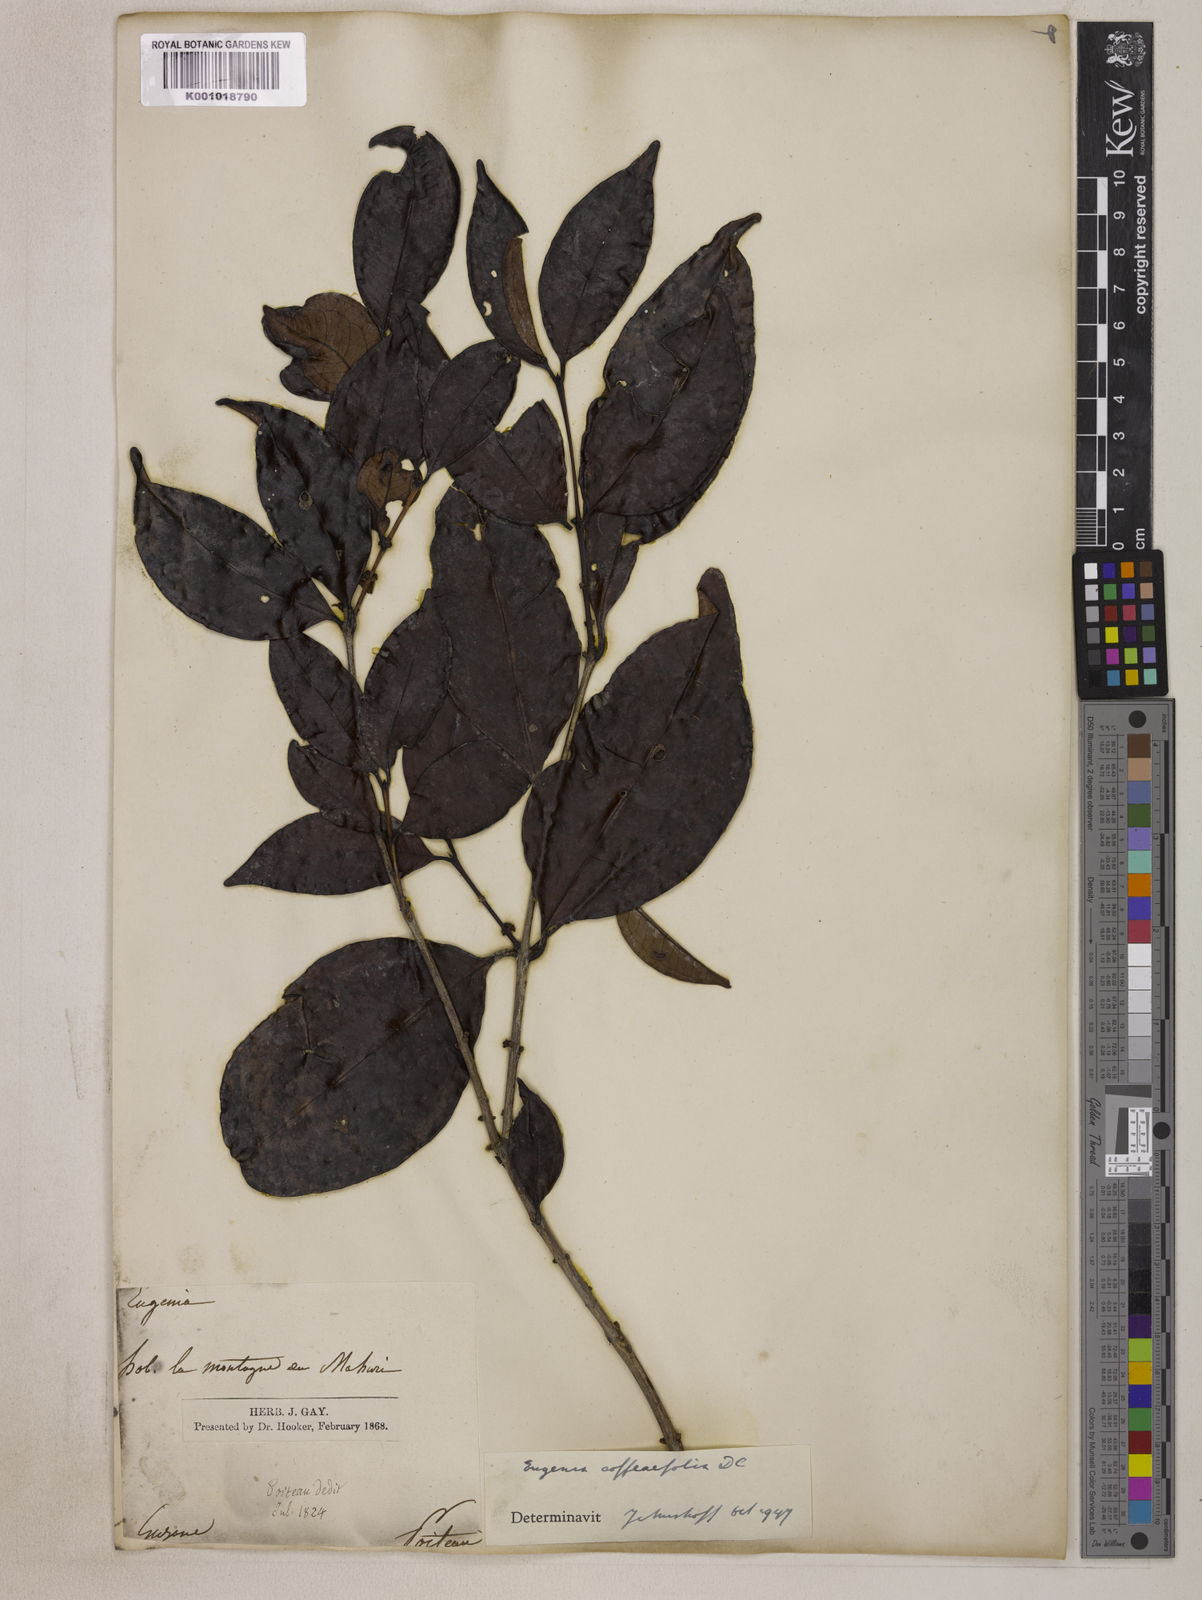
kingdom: Plantae
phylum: Tracheophyta
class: Magnoliopsida
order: Myrtales
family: Myrtaceae
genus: Eugenia
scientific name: Eugenia coffeifolia
